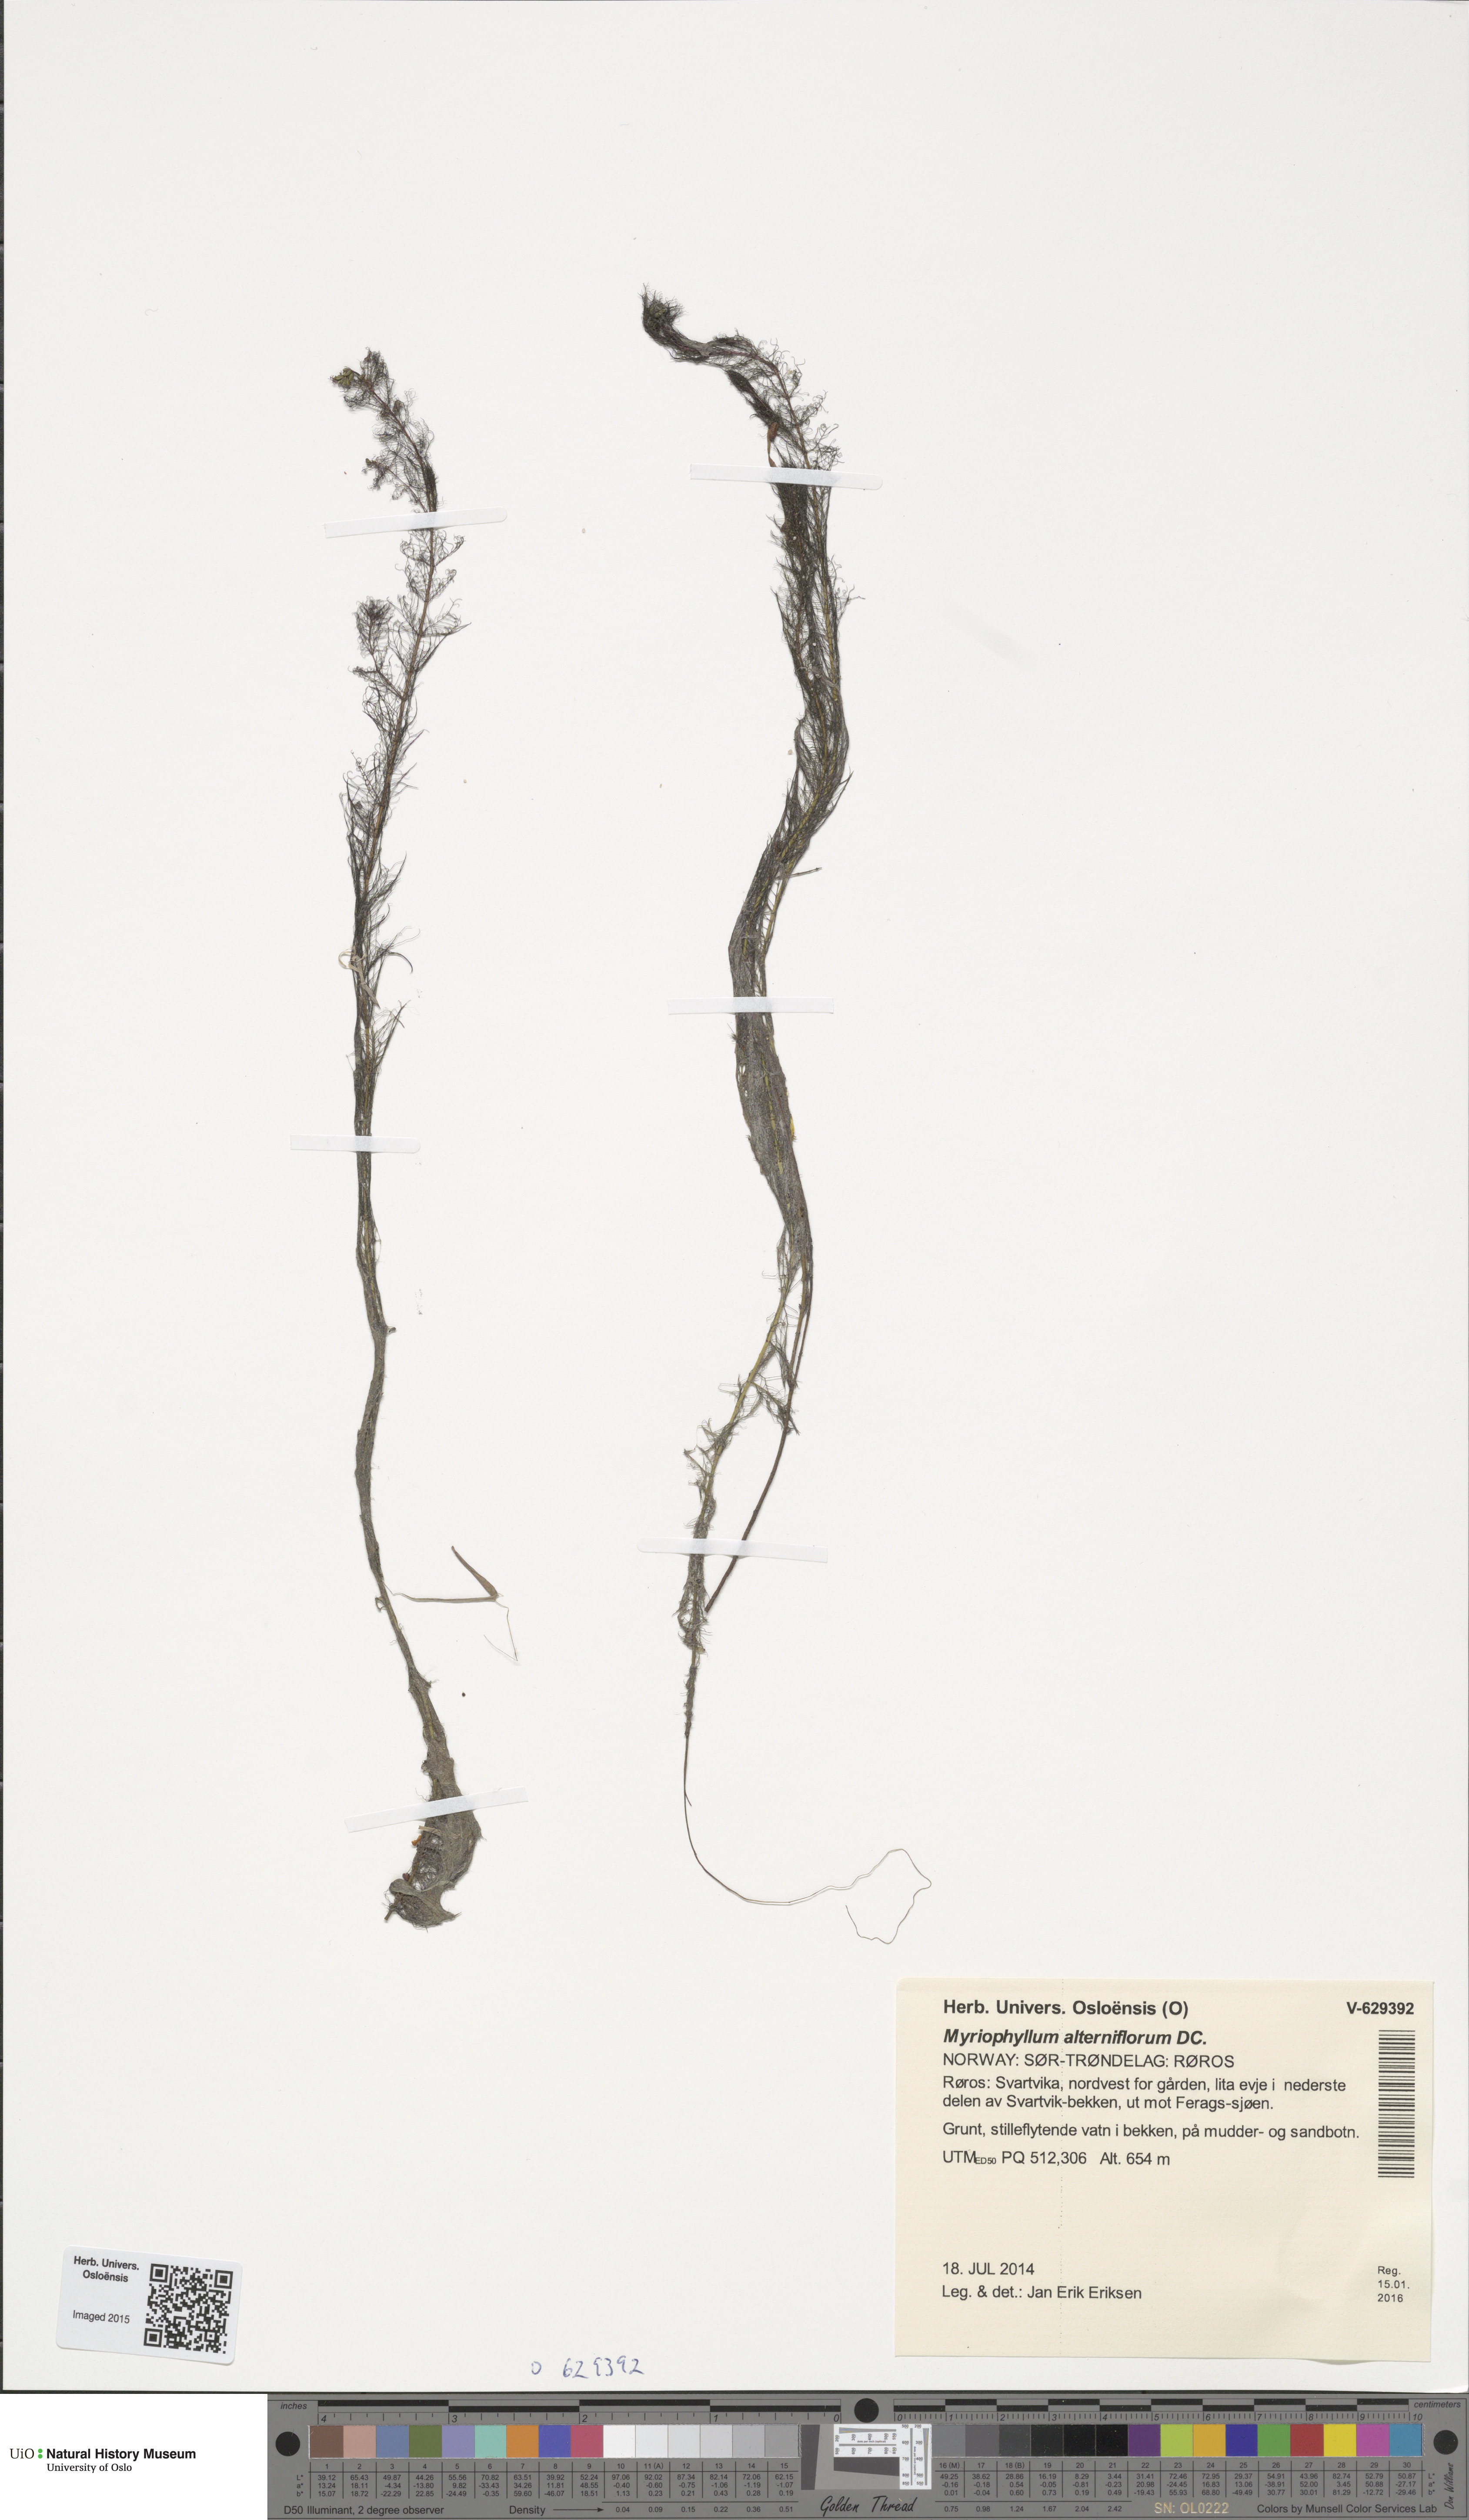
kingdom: Plantae
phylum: Tracheophyta
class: Magnoliopsida
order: Saxifragales
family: Haloragaceae
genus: Myriophyllum
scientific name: Myriophyllum alterniflorum
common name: Alternate water-milfoil
